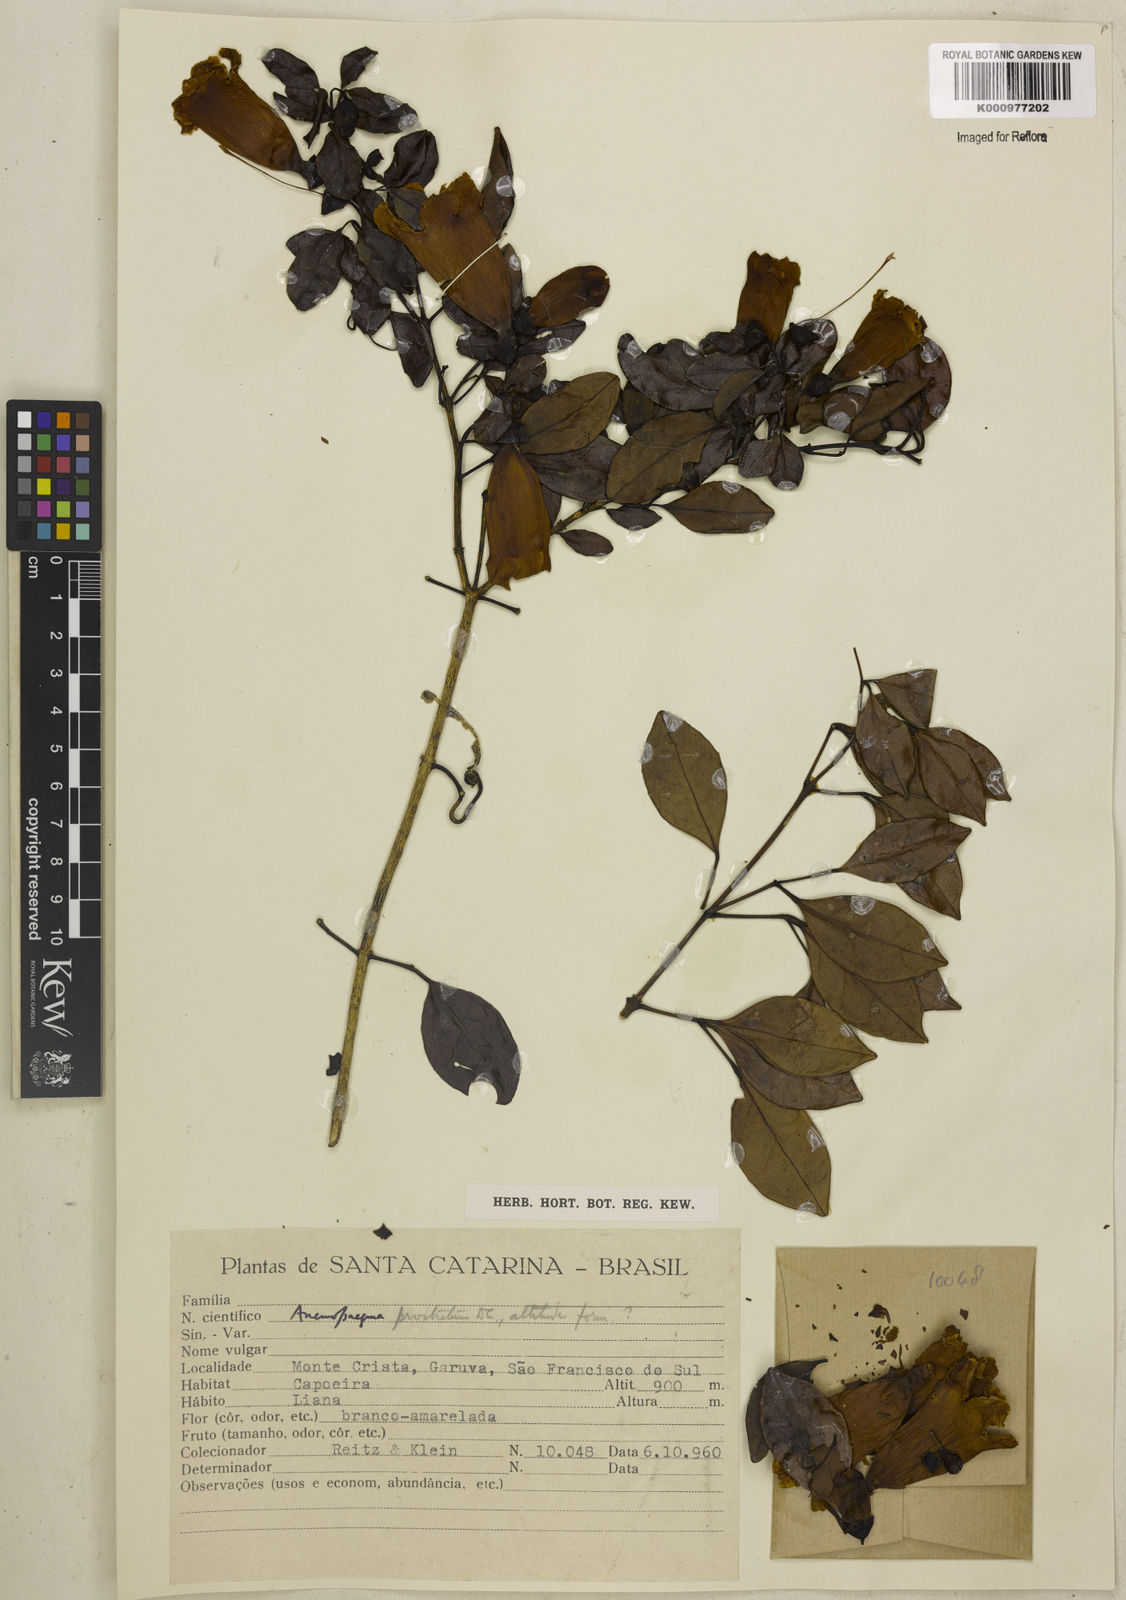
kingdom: Plantae
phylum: Tracheophyta
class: Magnoliopsida
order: Lamiales
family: Bignoniaceae
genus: Anemopaegma
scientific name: Anemopaegma nebulosum
